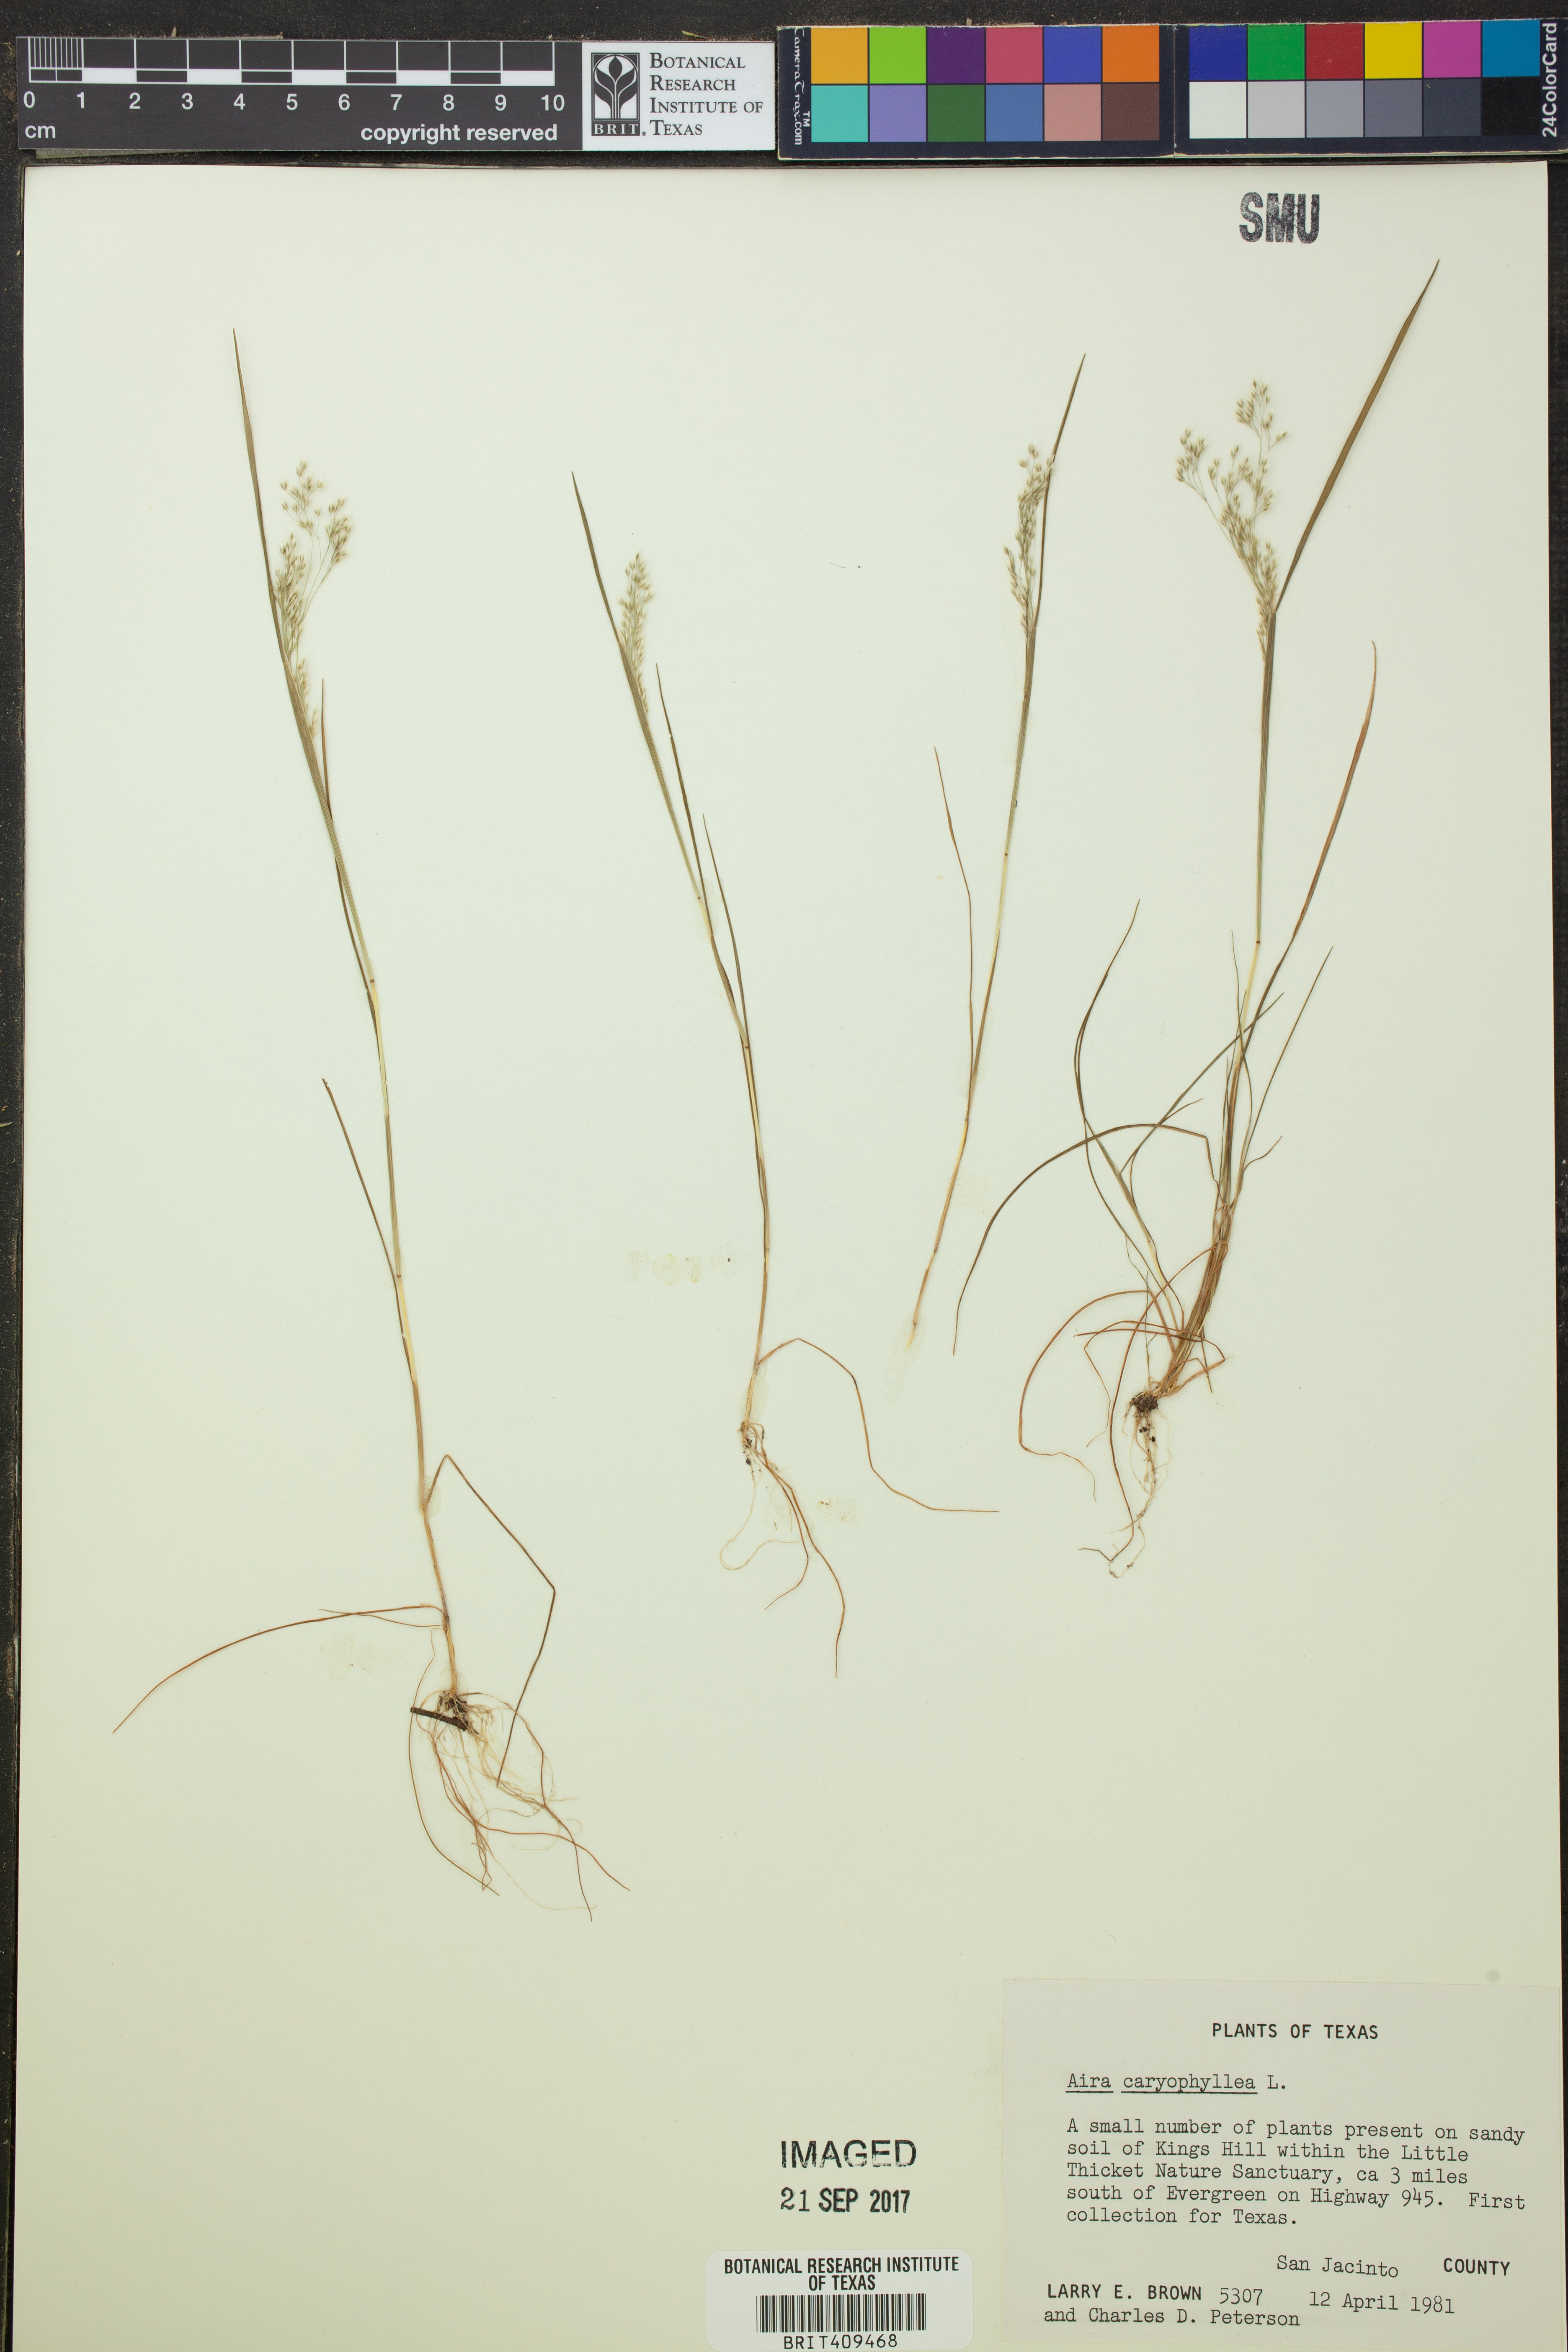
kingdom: Plantae
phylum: Tracheophyta
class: Liliopsida
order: Poales
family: Poaceae
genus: Aira
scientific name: Aira caryophyllea
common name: Silver hairgrass
